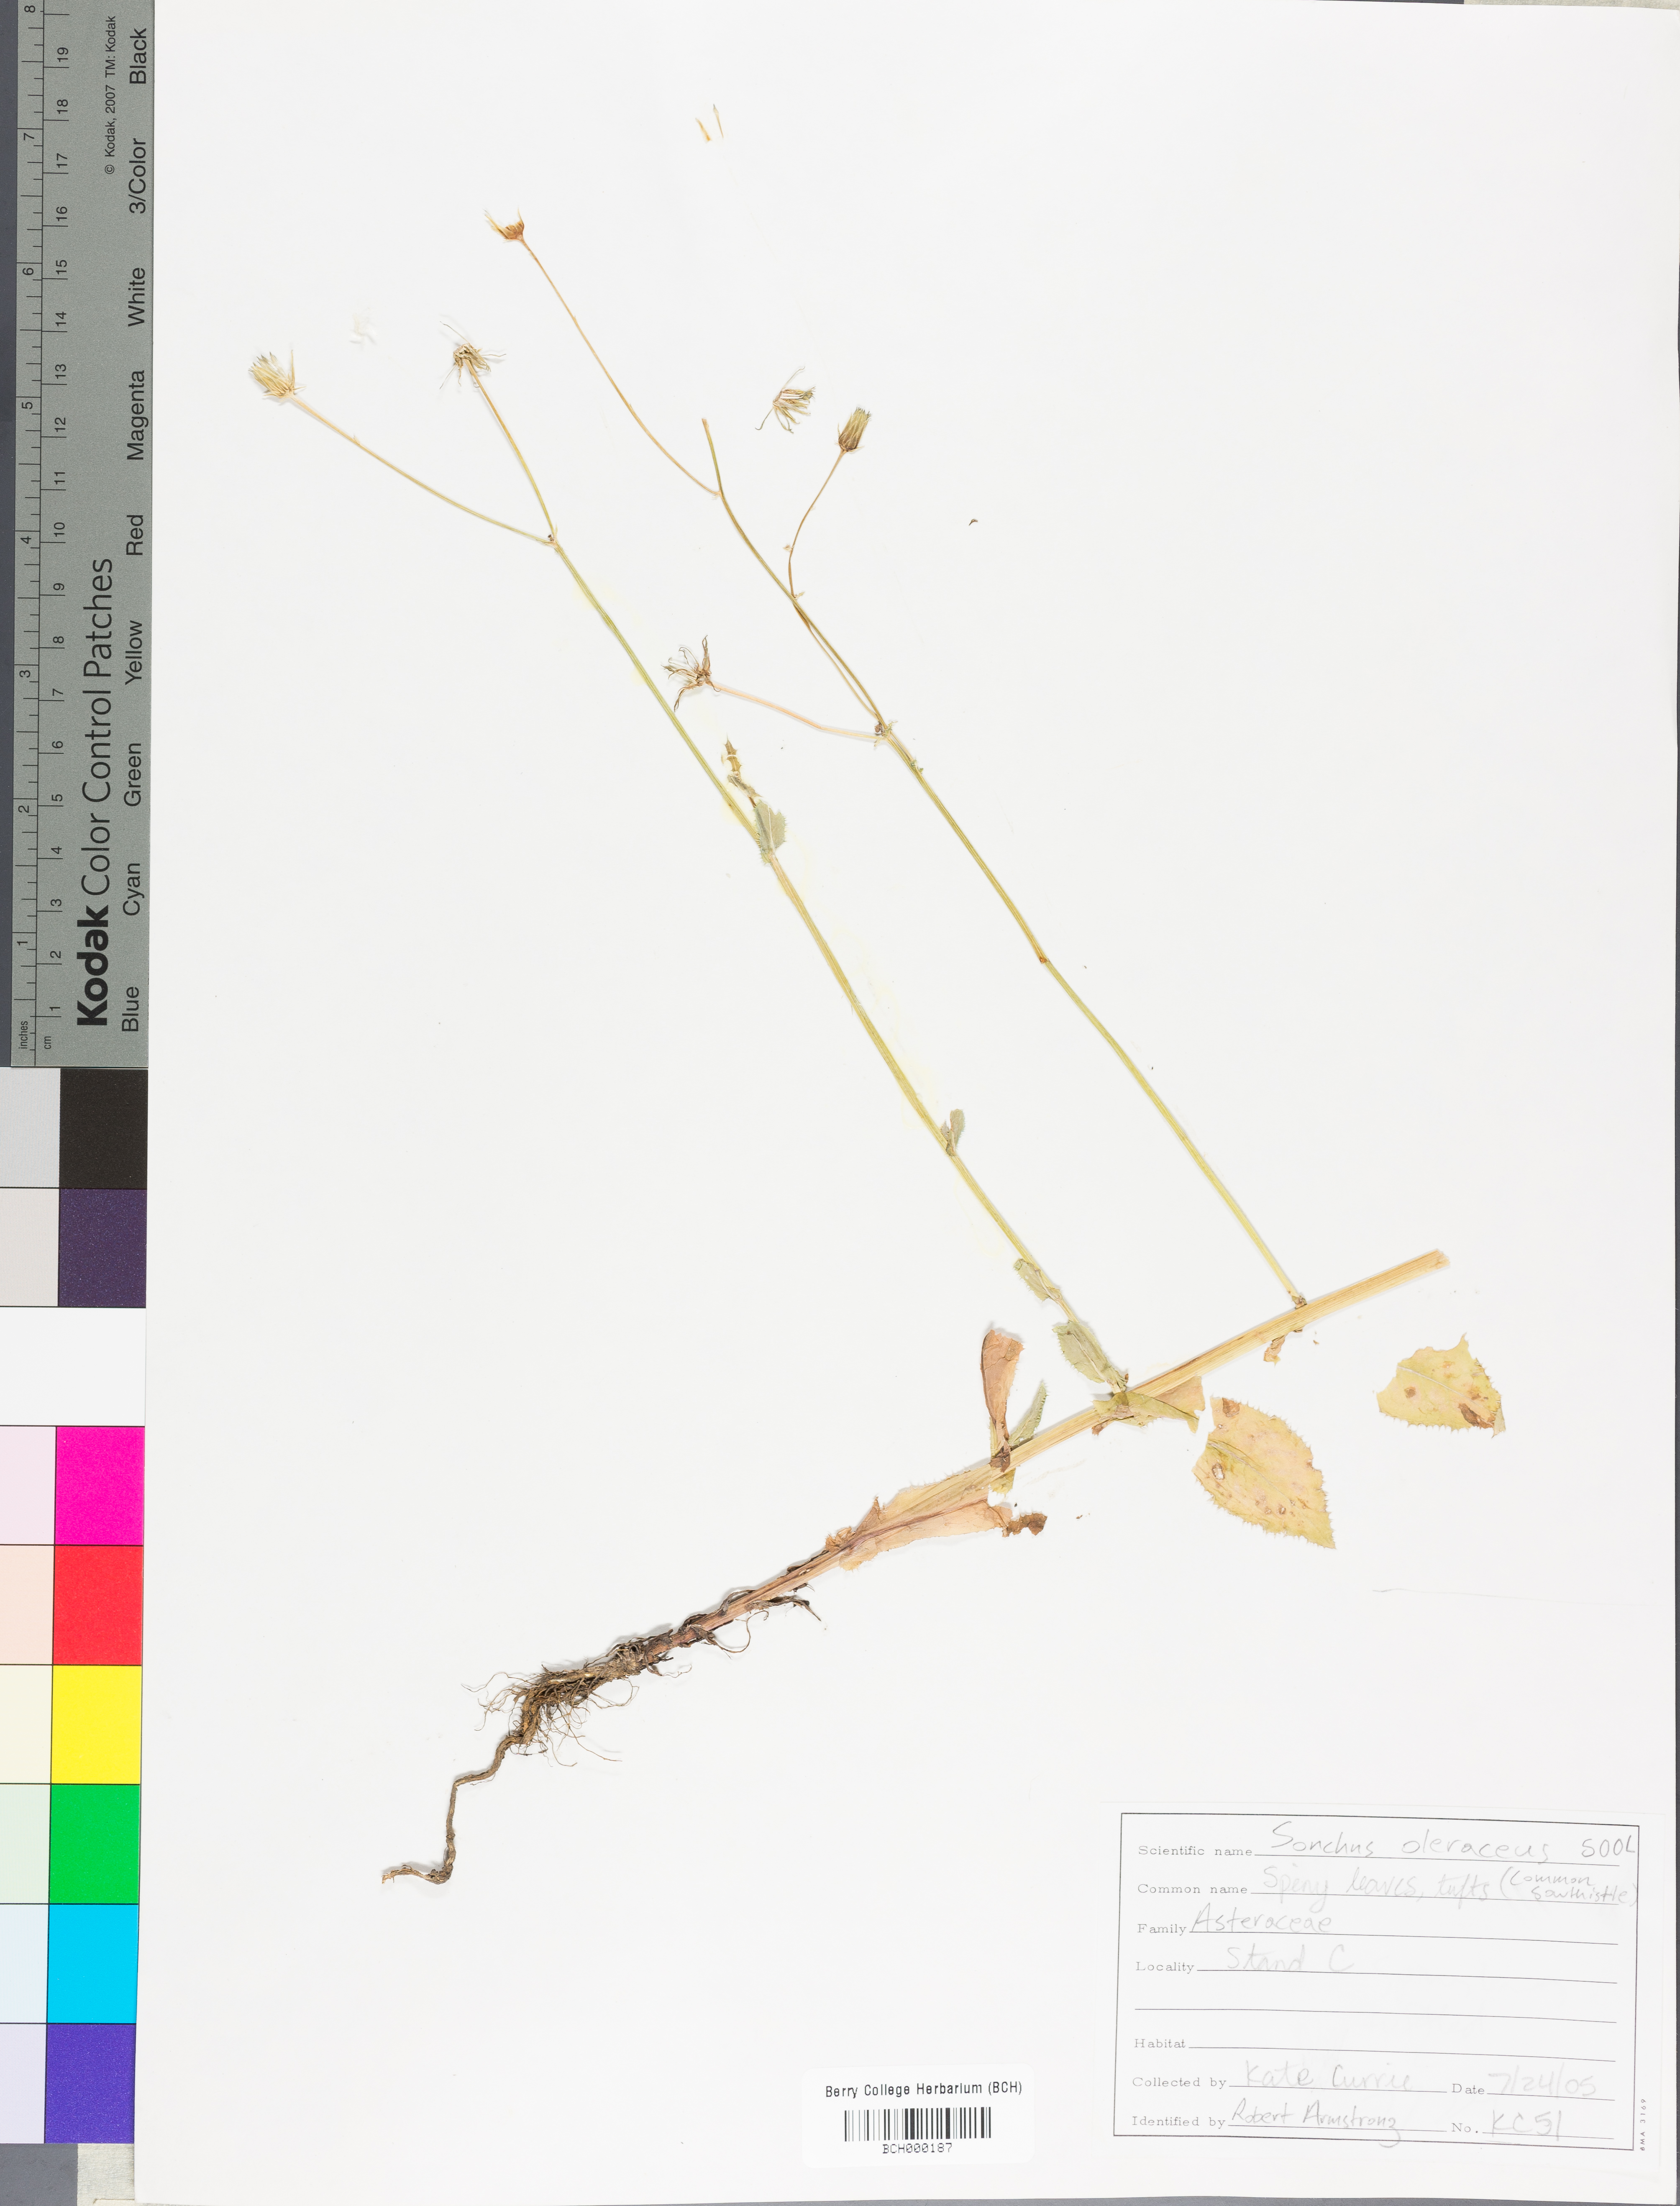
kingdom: Plantae
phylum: Tracheophyta
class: Magnoliopsida
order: Asterales
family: Asteraceae
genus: Sonchus
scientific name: Sonchus oleraceus
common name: Common sowthistle
